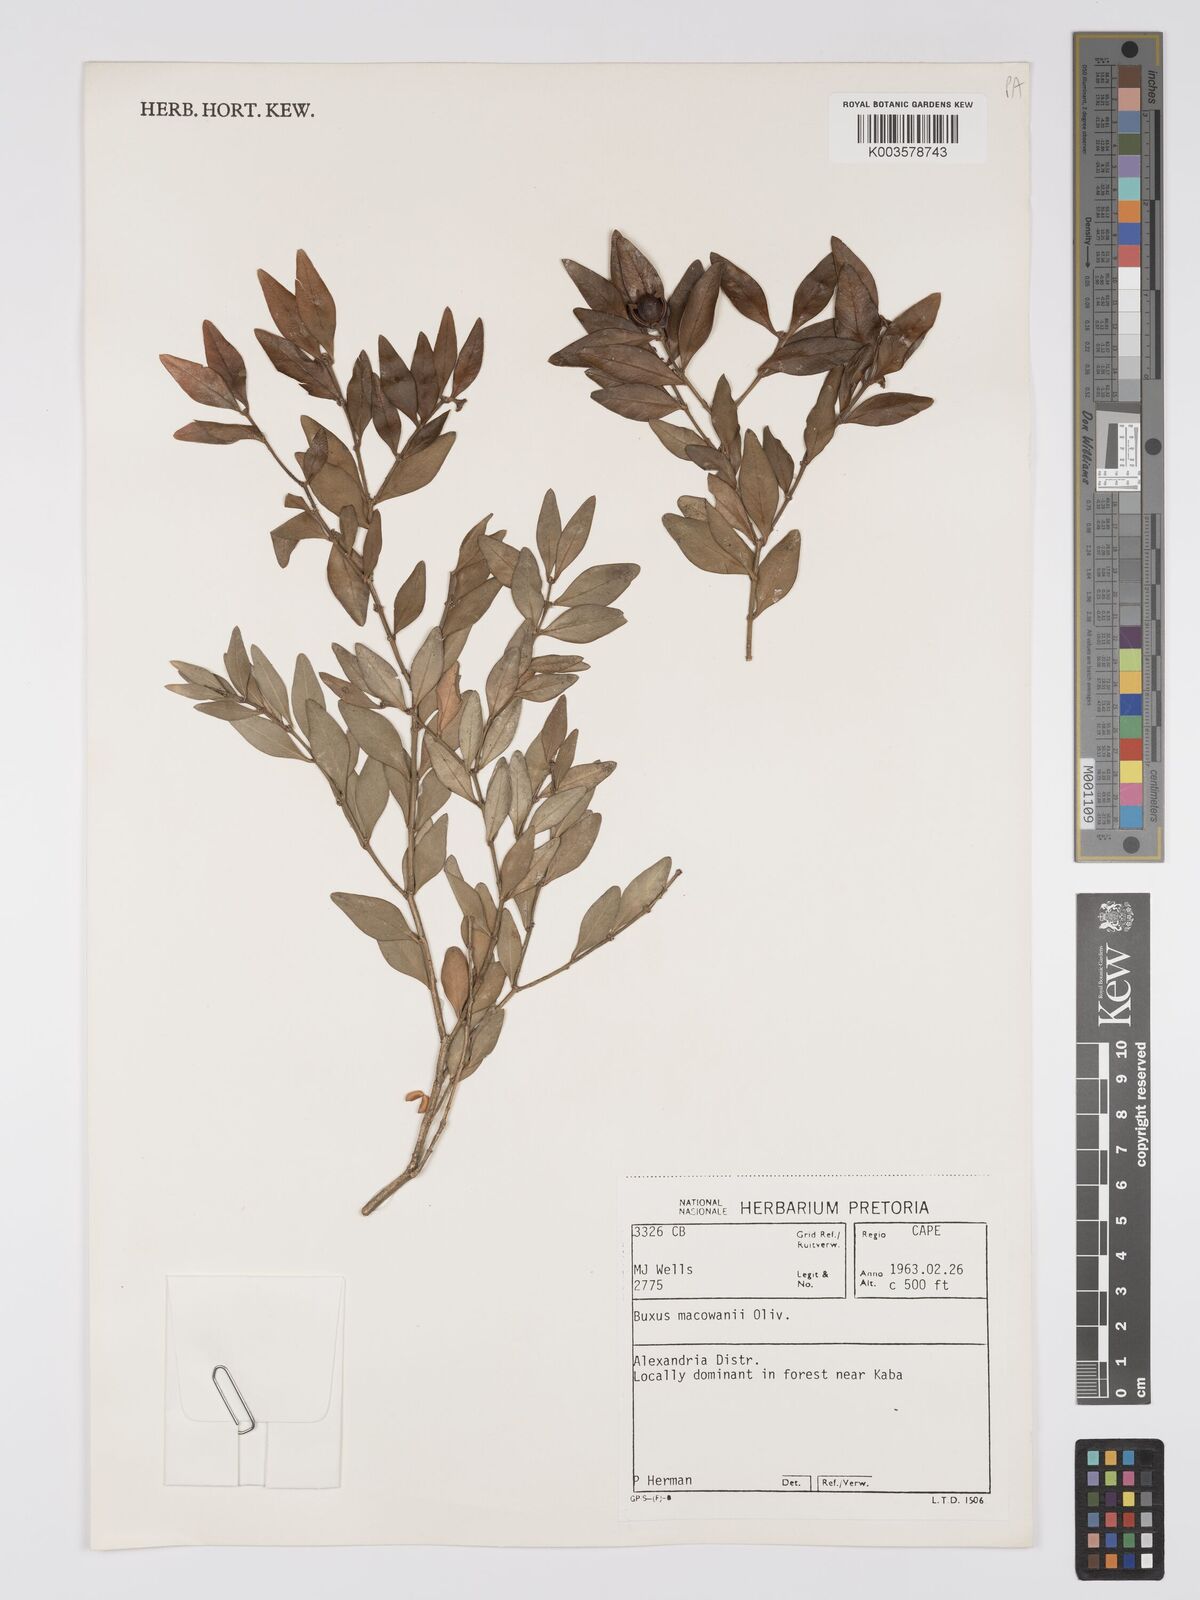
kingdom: Plantae
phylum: Tracheophyta
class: Magnoliopsida
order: Buxales
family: Buxaceae
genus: Buxus
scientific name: Buxus macowanii
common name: Cape box
